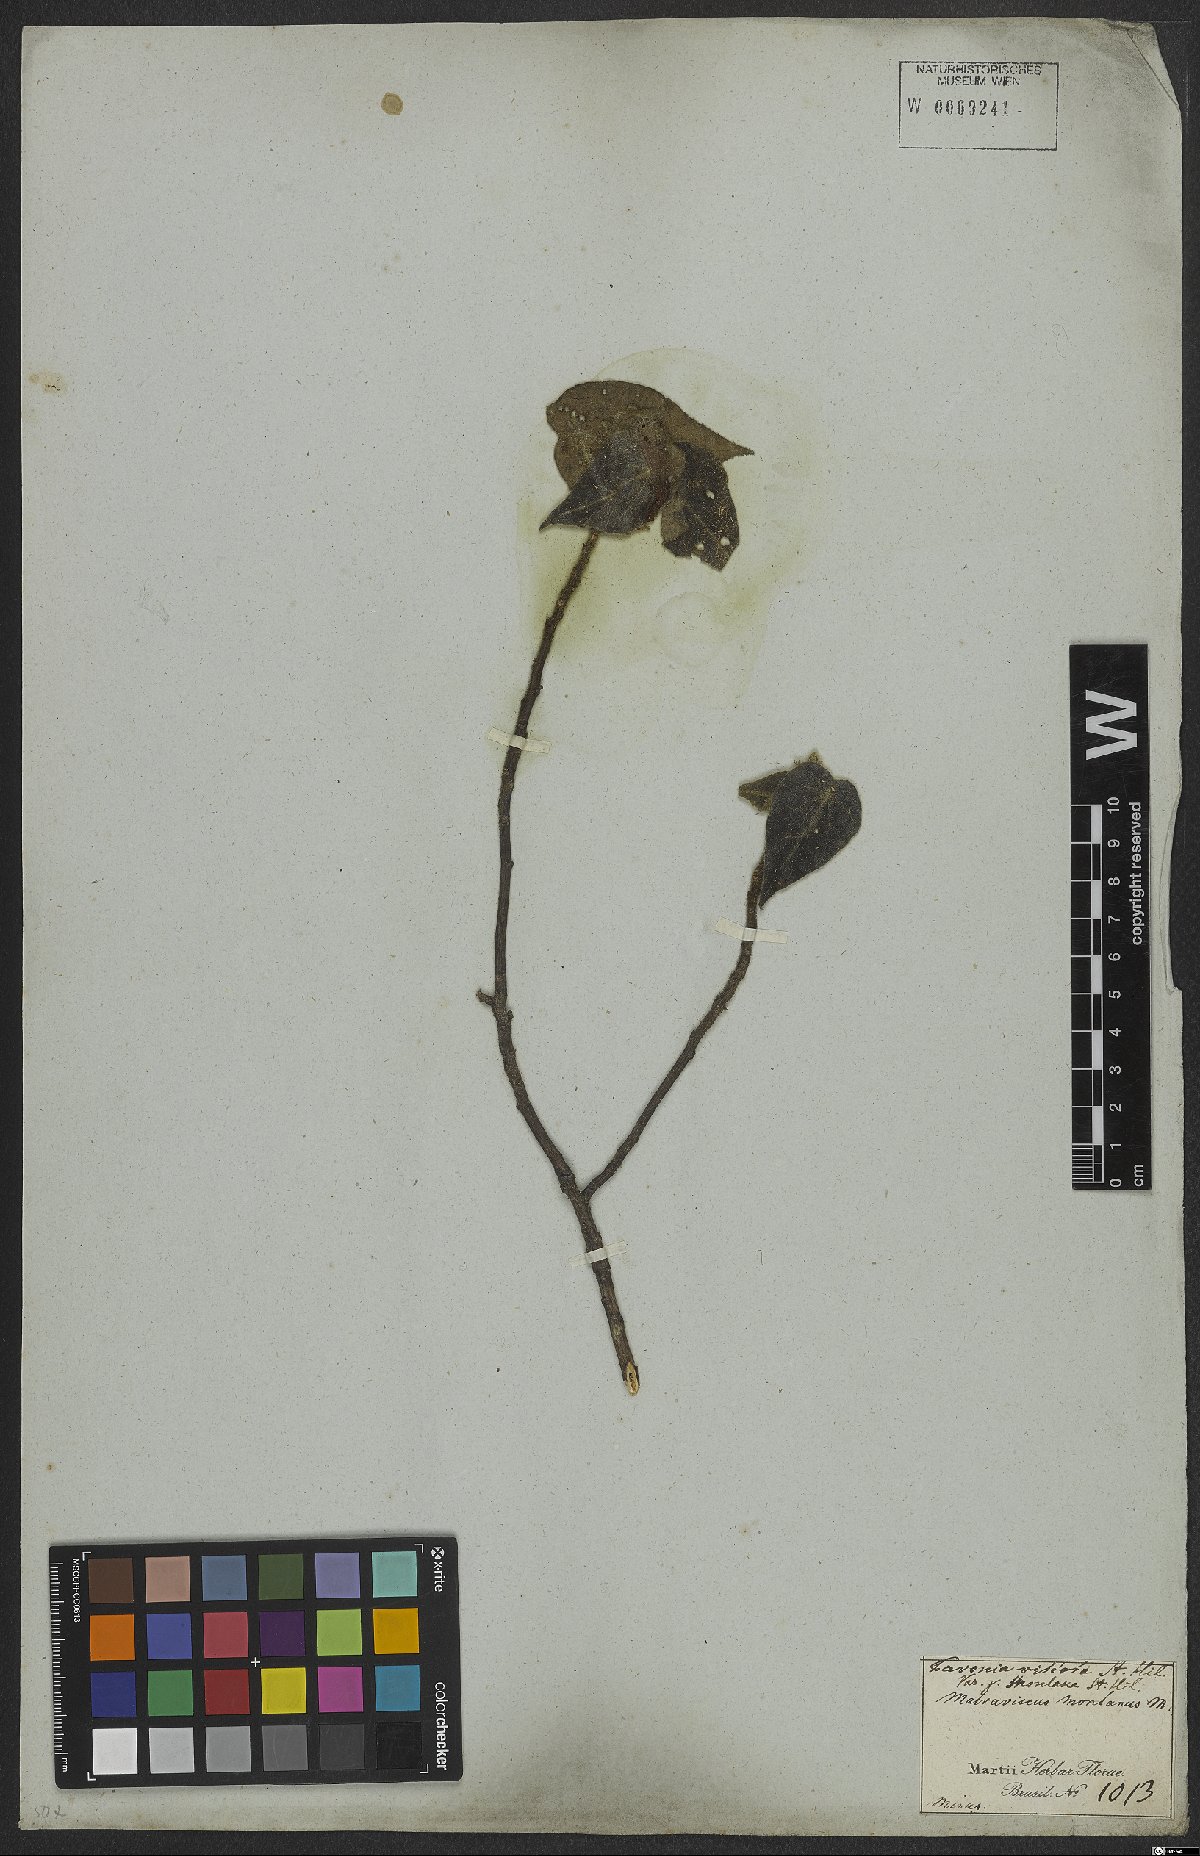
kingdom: Plantae
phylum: Tracheophyta
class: Magnoliopsida
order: Malvales
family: Malvaceae
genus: Pavonia
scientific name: Pavonia montana
